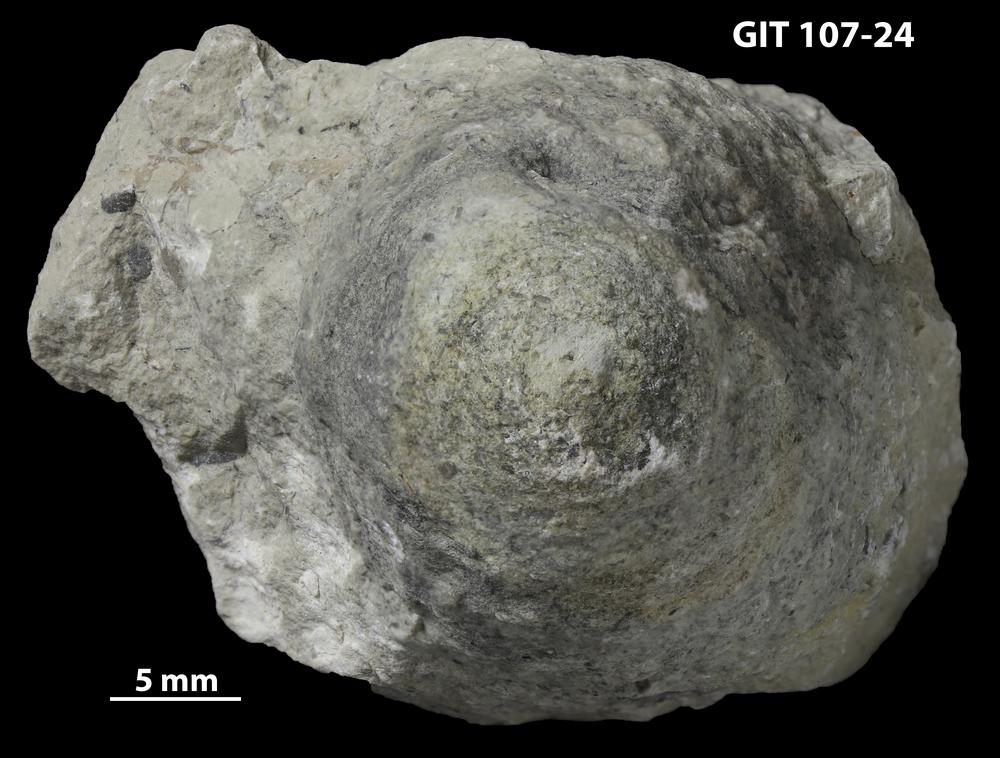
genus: Amphorichnus
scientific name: Amphorichnus
